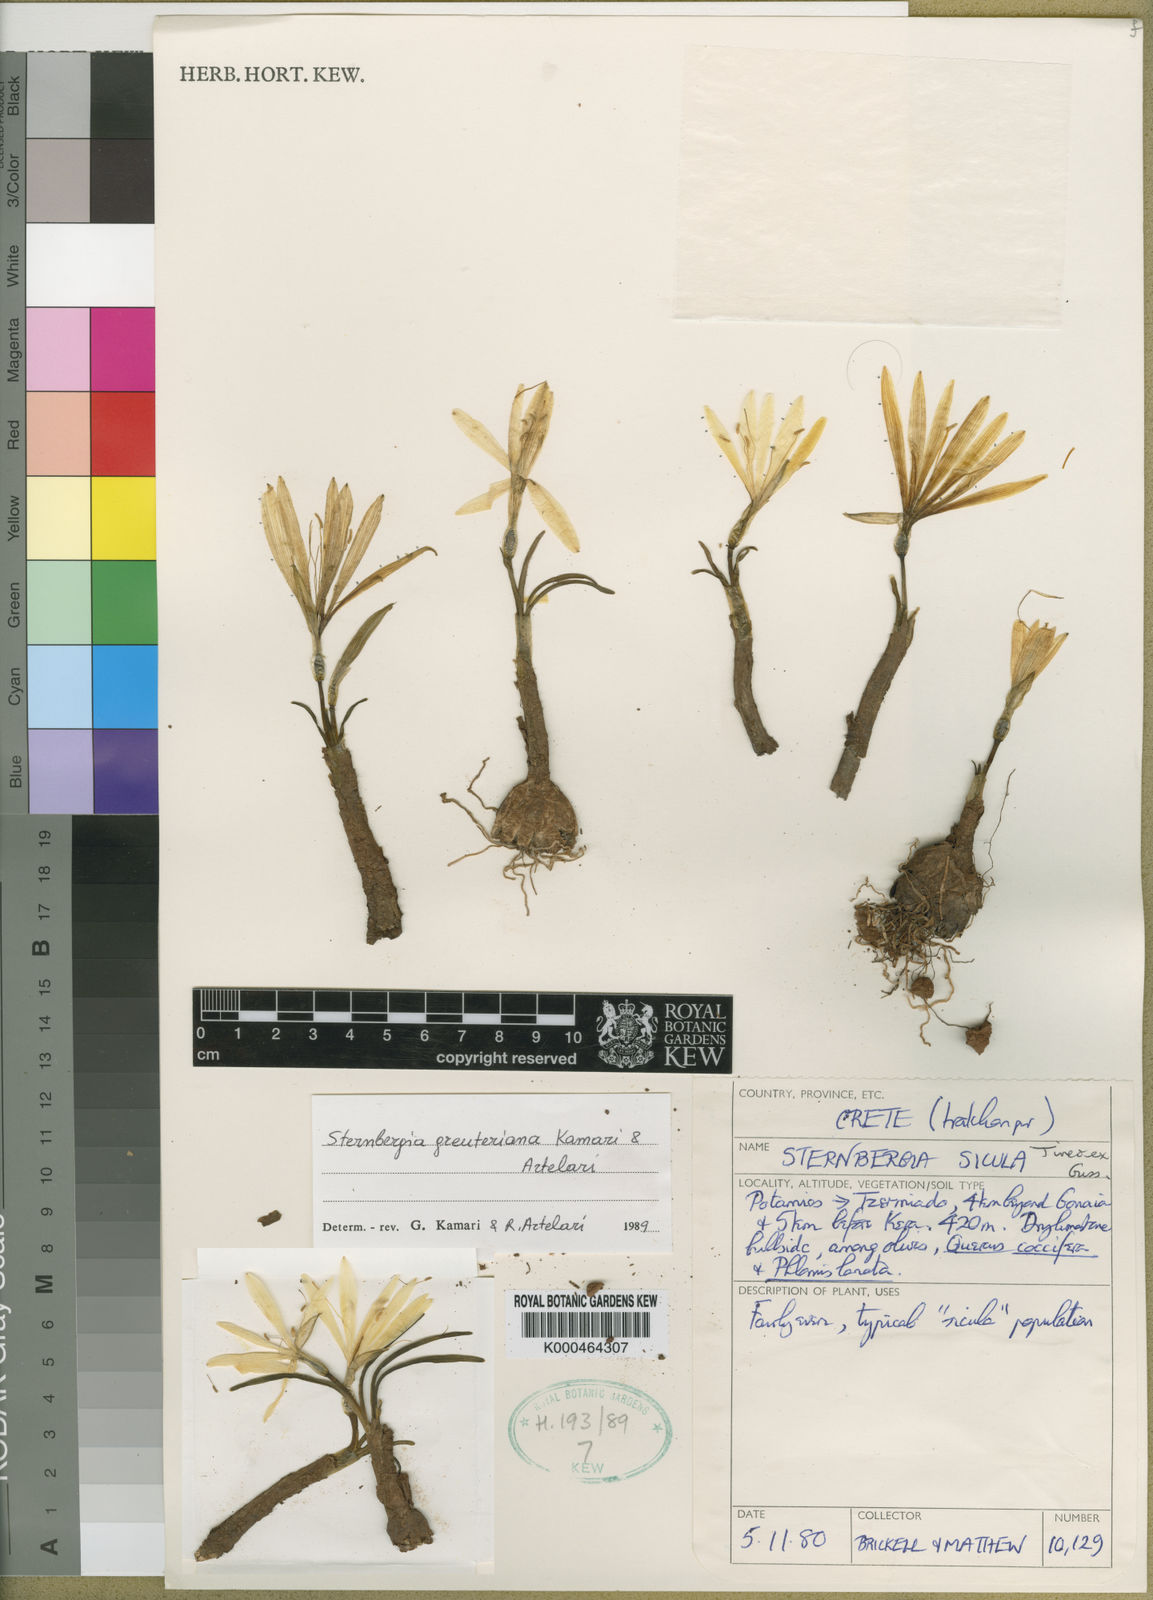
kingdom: Plantae
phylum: Tracheophyta
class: Liliopsida
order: Asparagales
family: Amaryllidaceae
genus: Sternbergia
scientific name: Sternbergia lutea
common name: Winter daffodil
